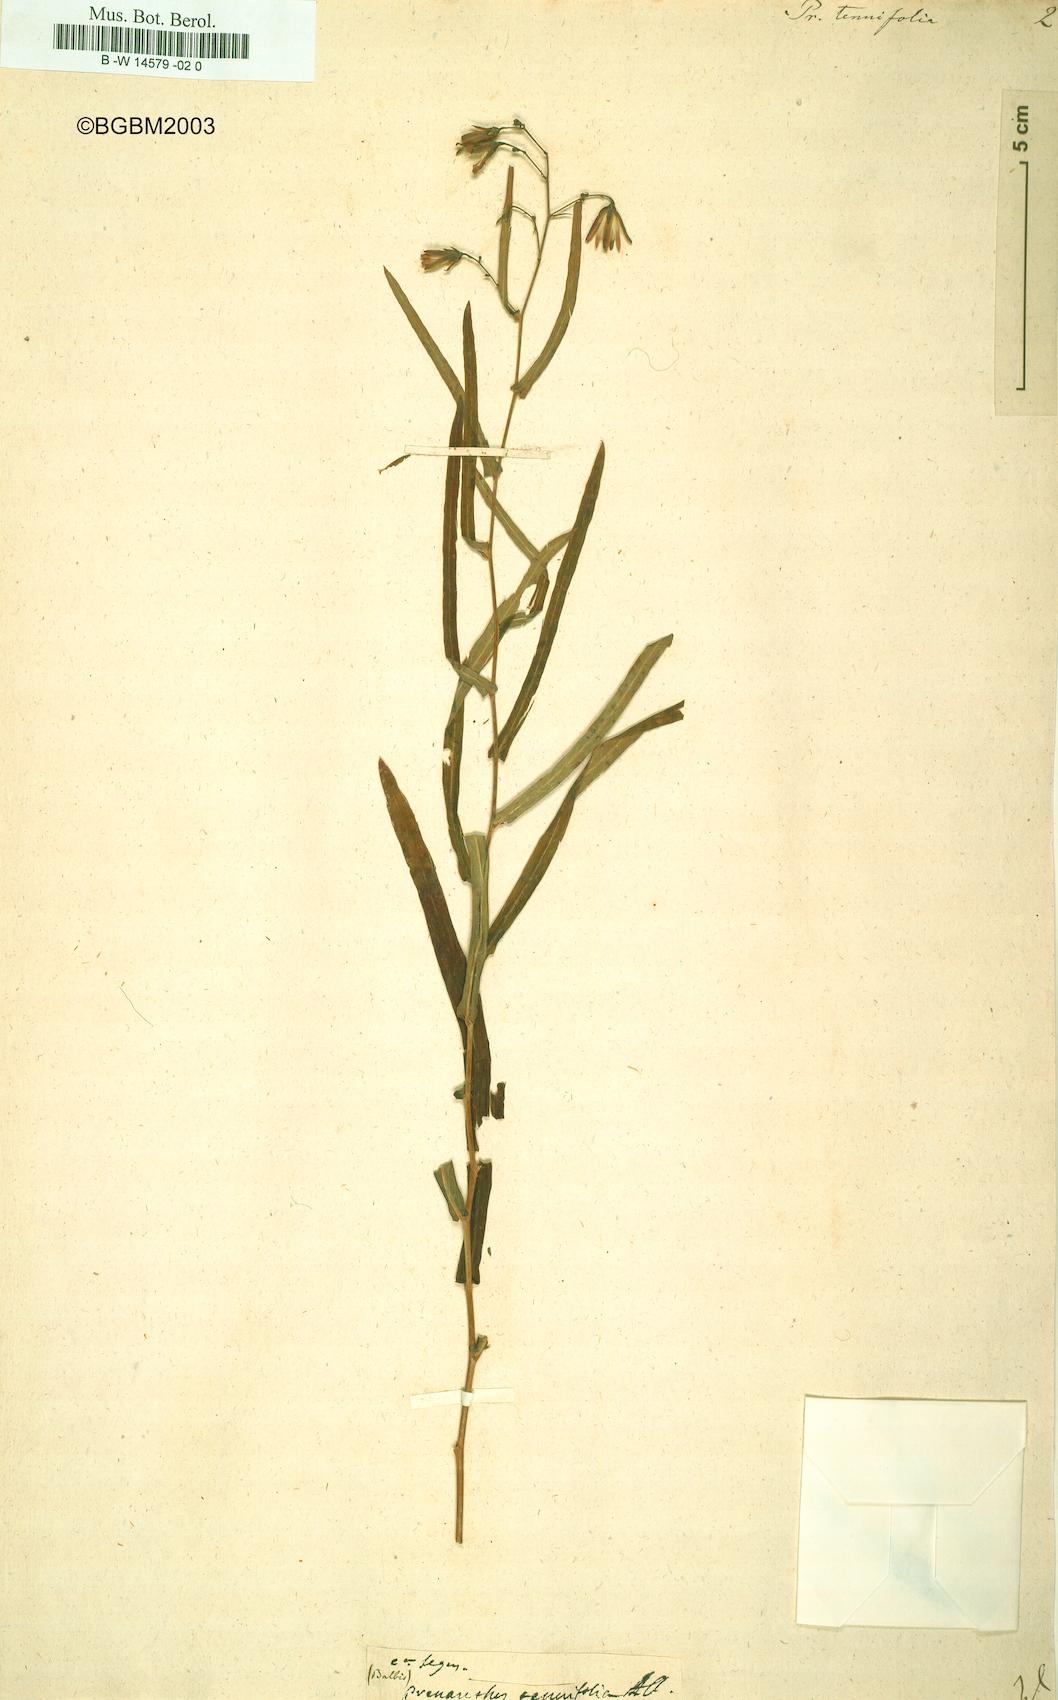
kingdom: Plantae
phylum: Tracheophyta
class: Magnoliopsida
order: Asterales
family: Asteraceae
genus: Prenanthes
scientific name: Prenanthes purpurea
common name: Purple lettuce
